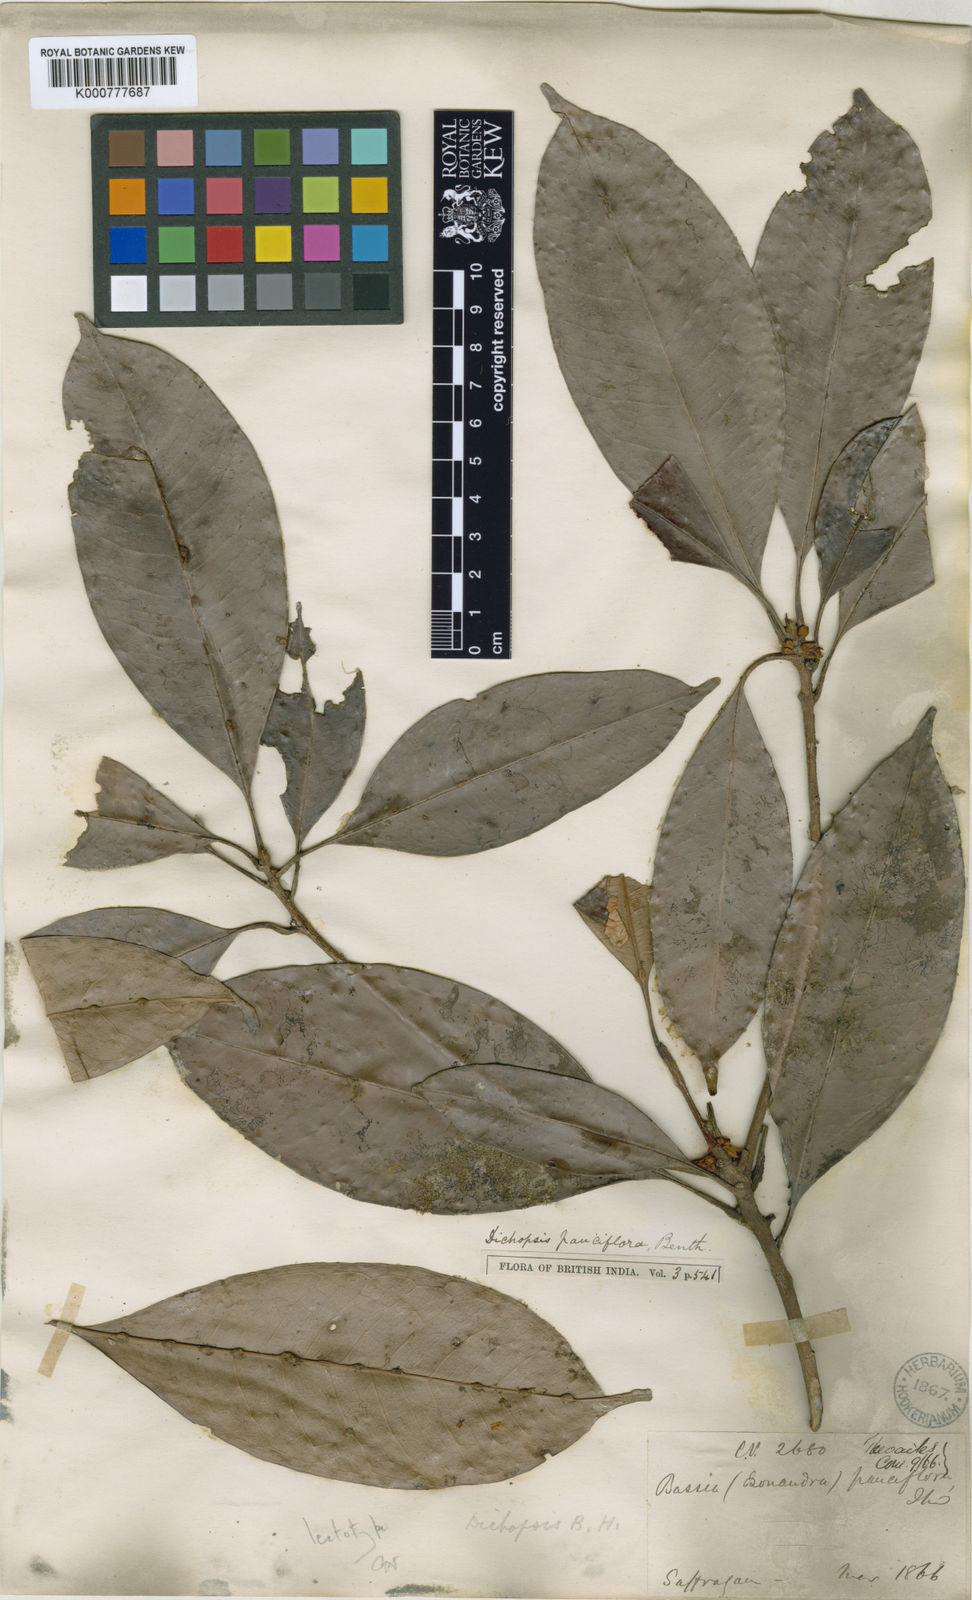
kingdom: Plantae
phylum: Tracheophyta
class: Magnoliopsida
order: Ericales
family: Sapotaceae
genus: Palaquium
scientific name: Palaquium pauciflorum
